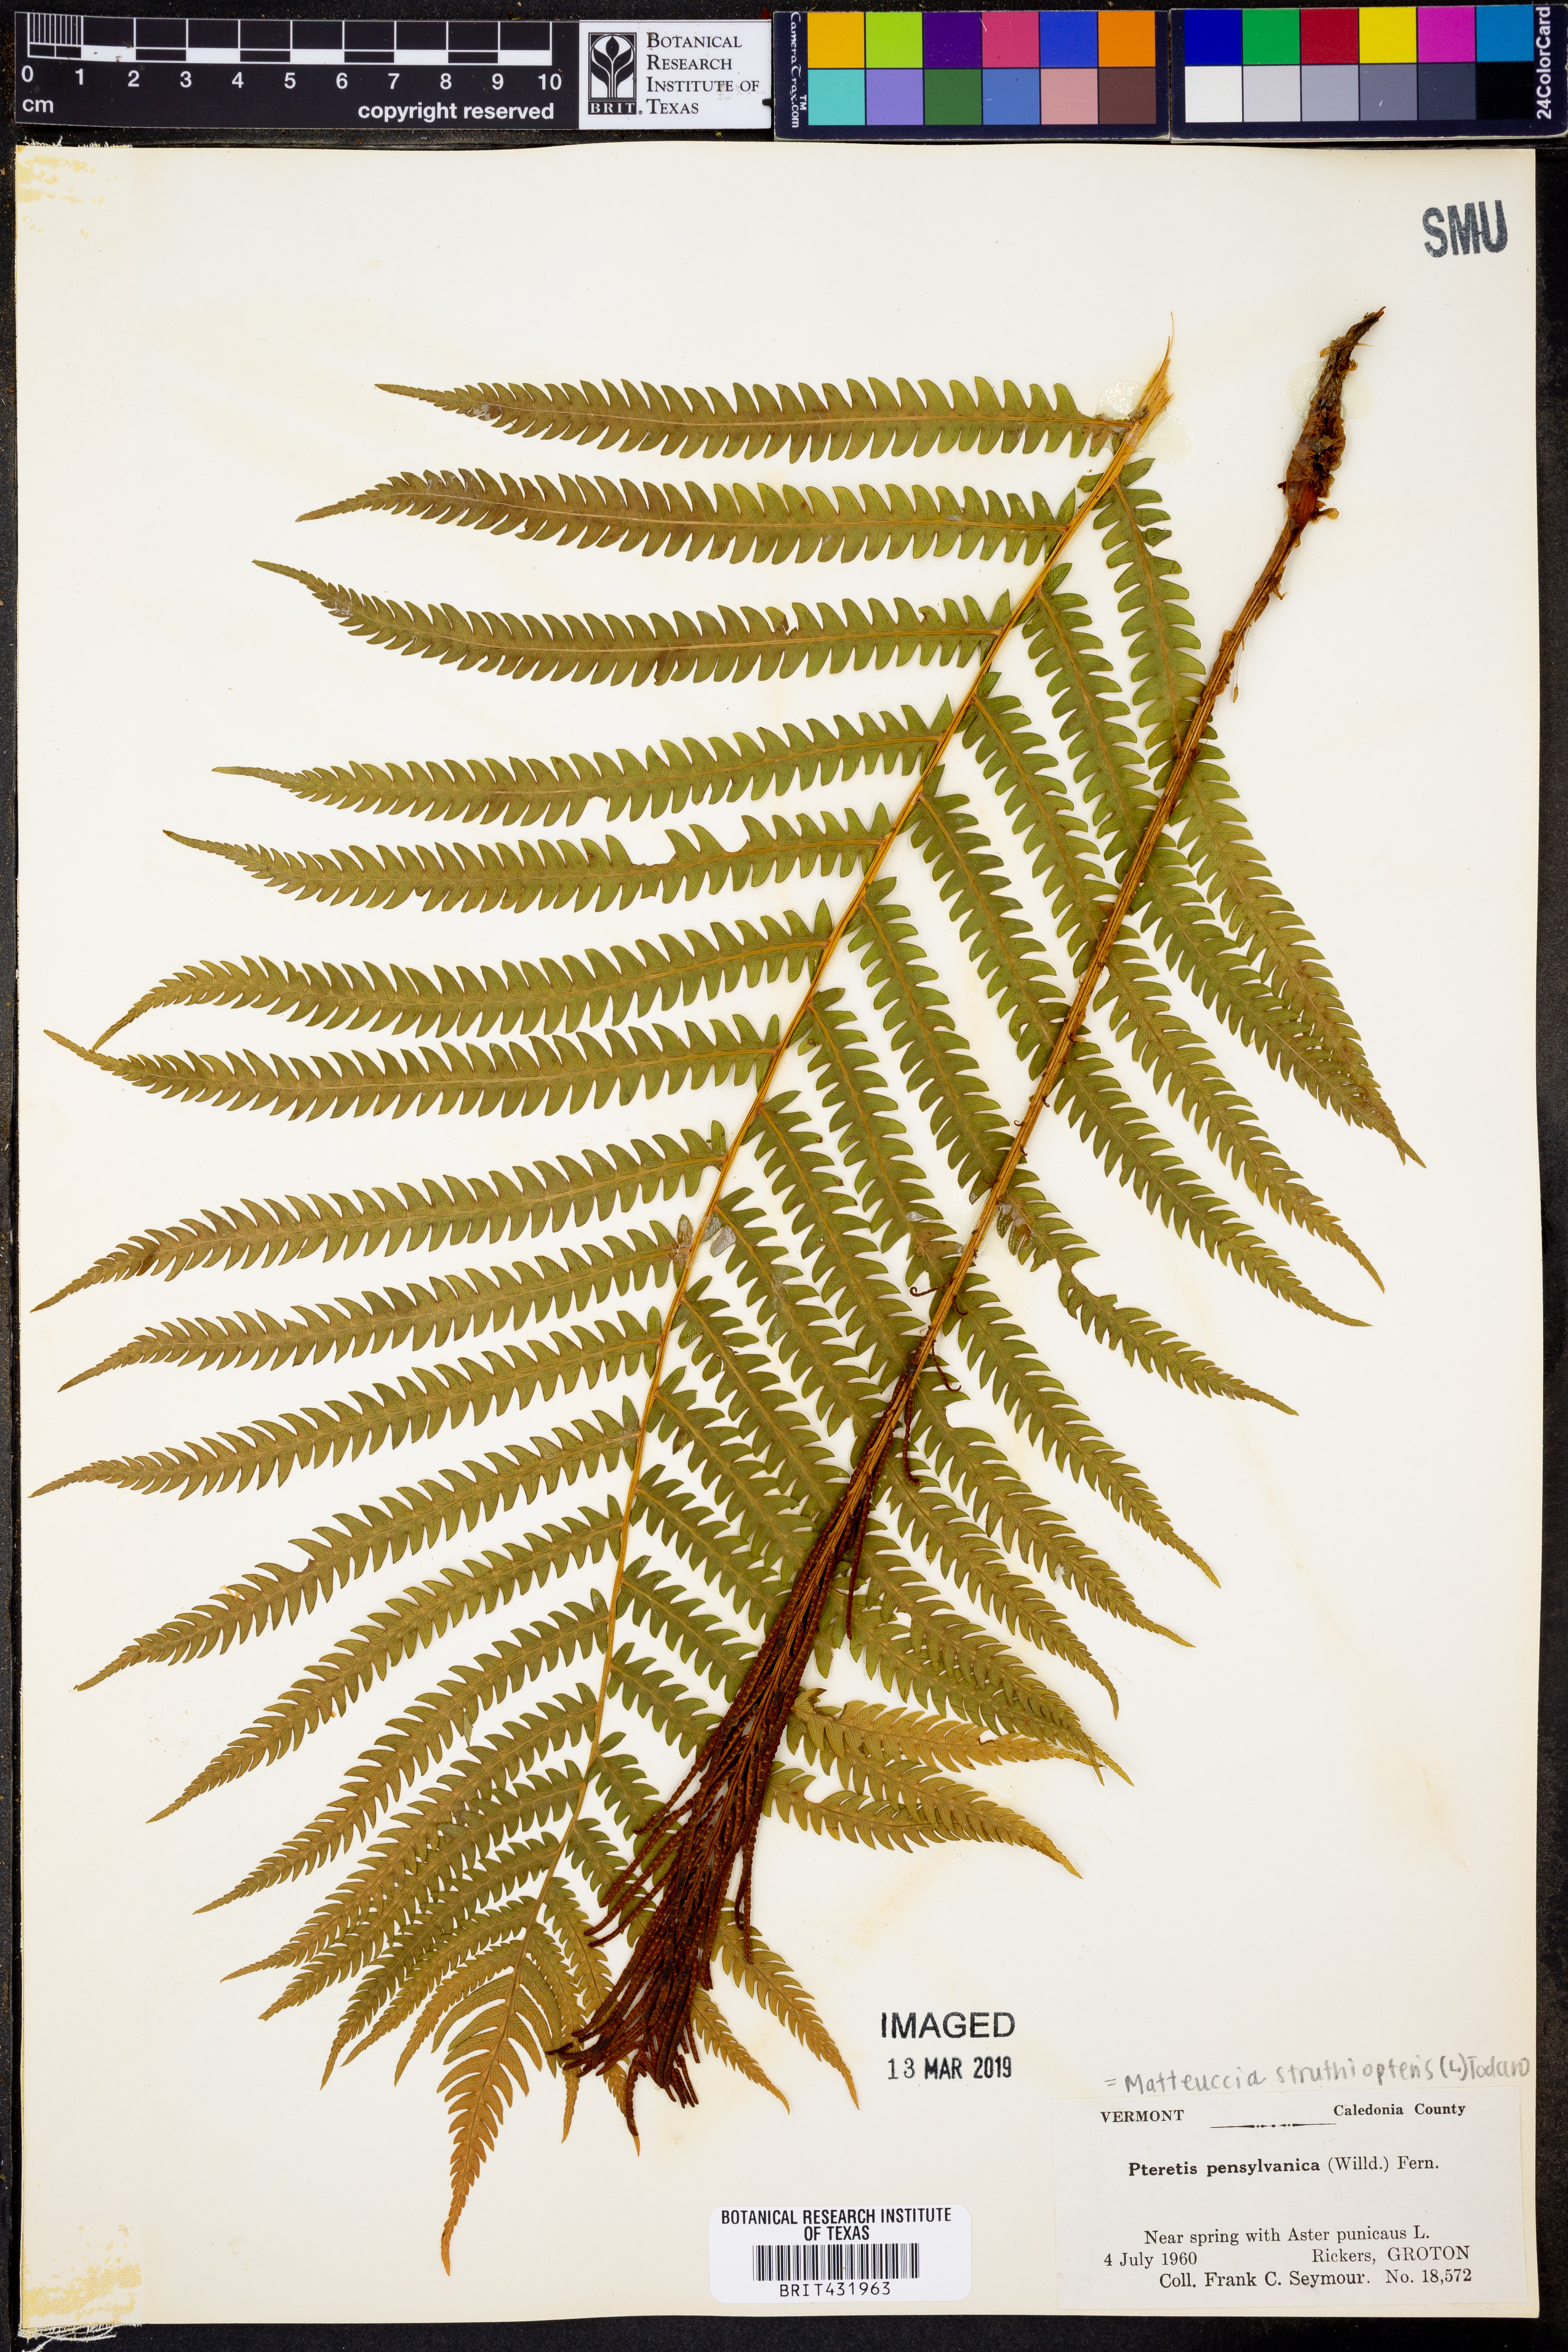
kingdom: Plantae
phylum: Tracheophyta
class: Polypodiopsida
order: Polypodiales
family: Onocleaceae
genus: Matteuccia
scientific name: Matteuccia struthiopteris
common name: Ostrich fern
